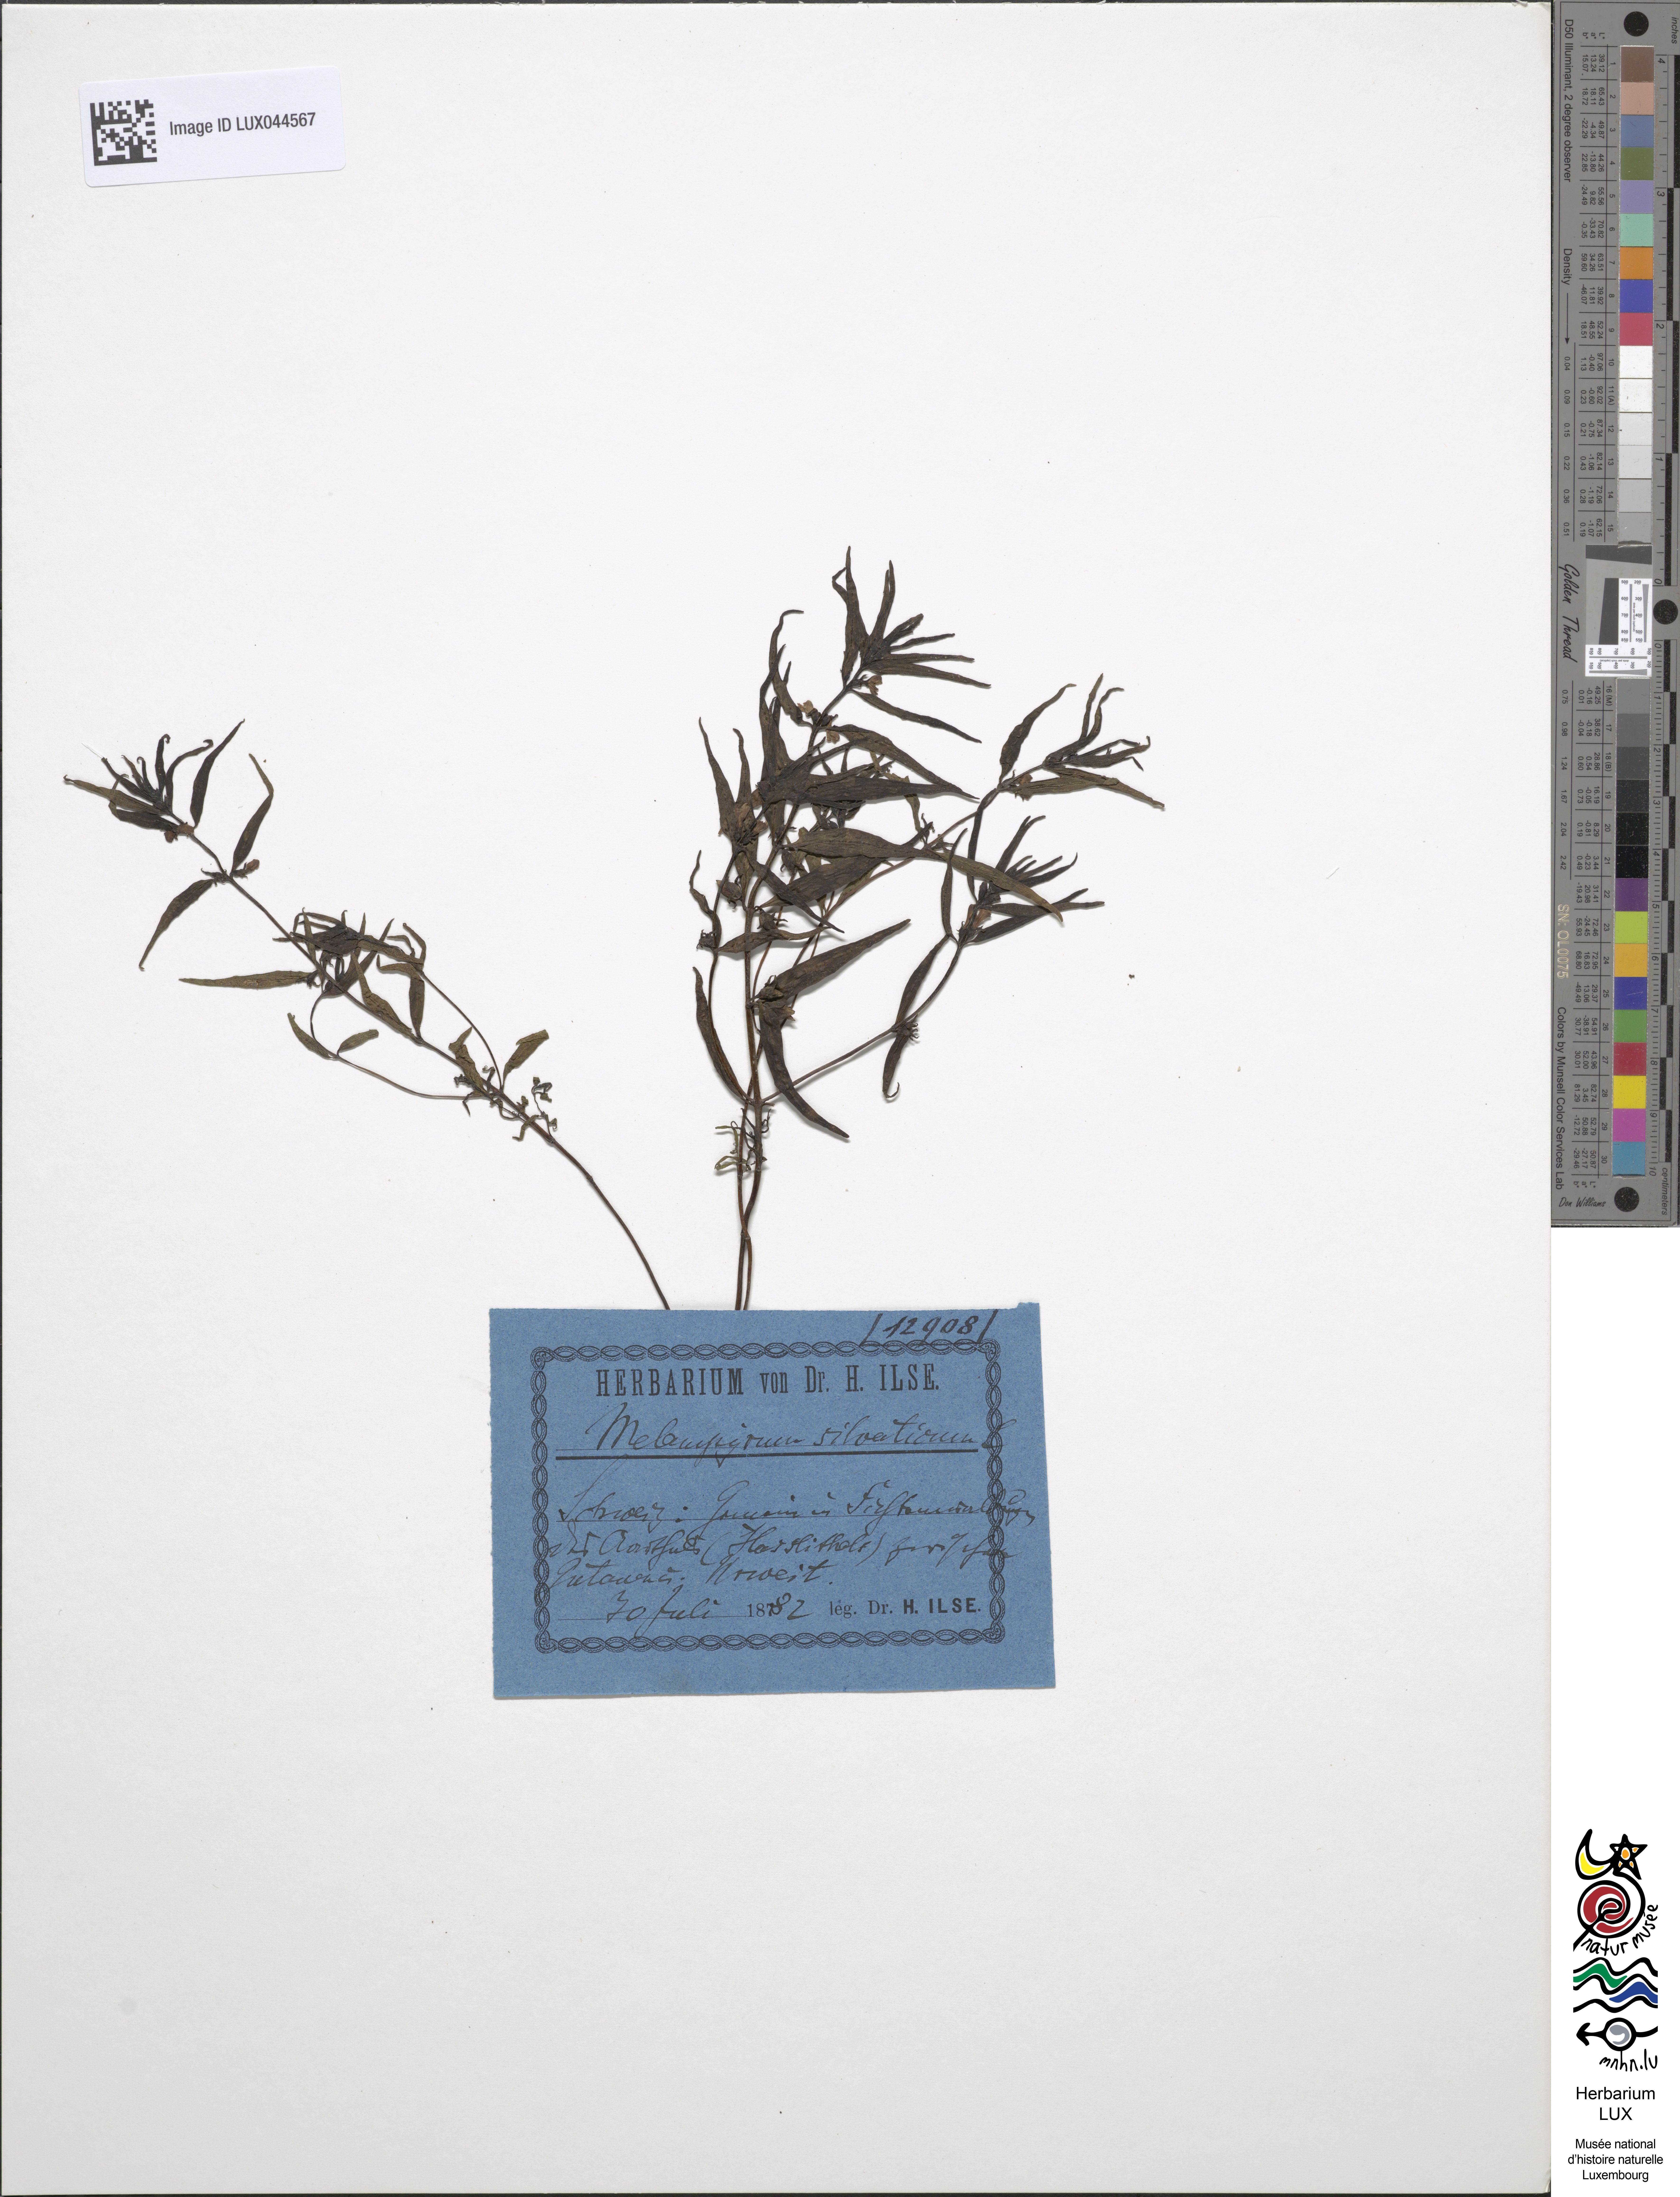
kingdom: Plantae
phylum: Tracheophyta
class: Magnoliopsida
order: Lamiales
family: Orobanchaceae
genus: Melampyrum
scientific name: Melampyrum sylvaticum
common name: Small cow-wheat
